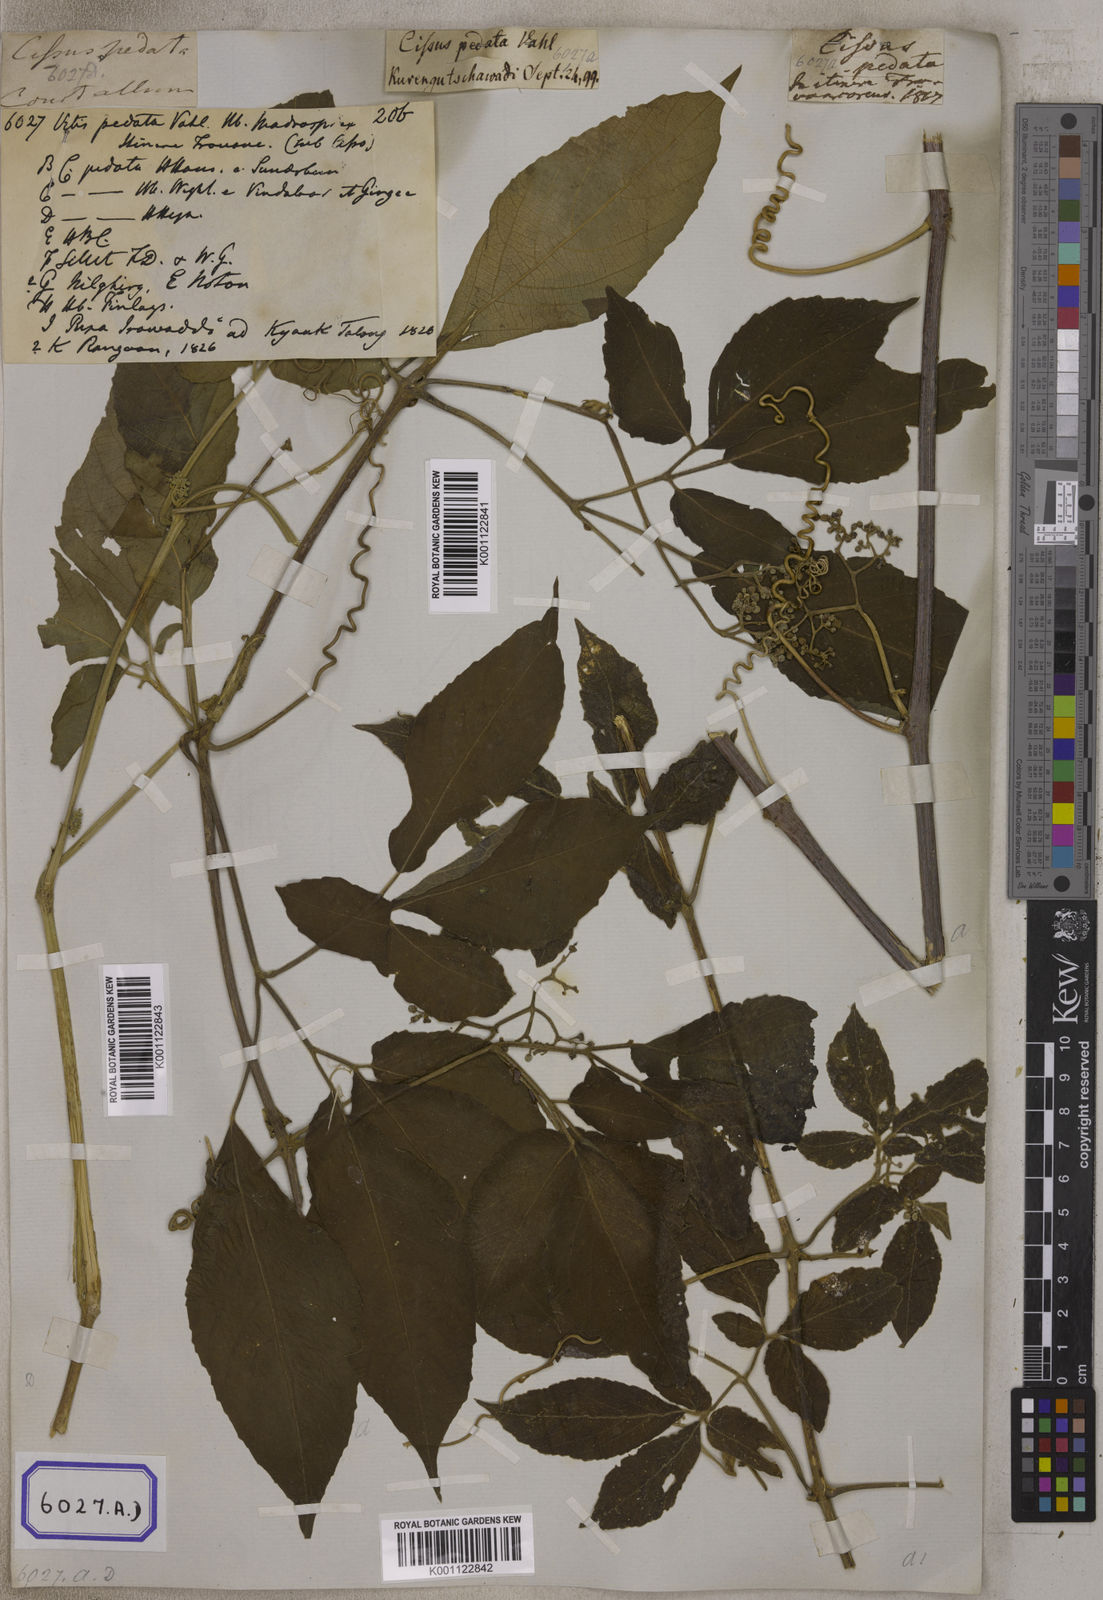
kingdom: Plantae
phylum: Tracheophyta
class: Magnoliopsida
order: Vitales
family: Vitaceae
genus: Cayratia
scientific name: Cayratia pedata
